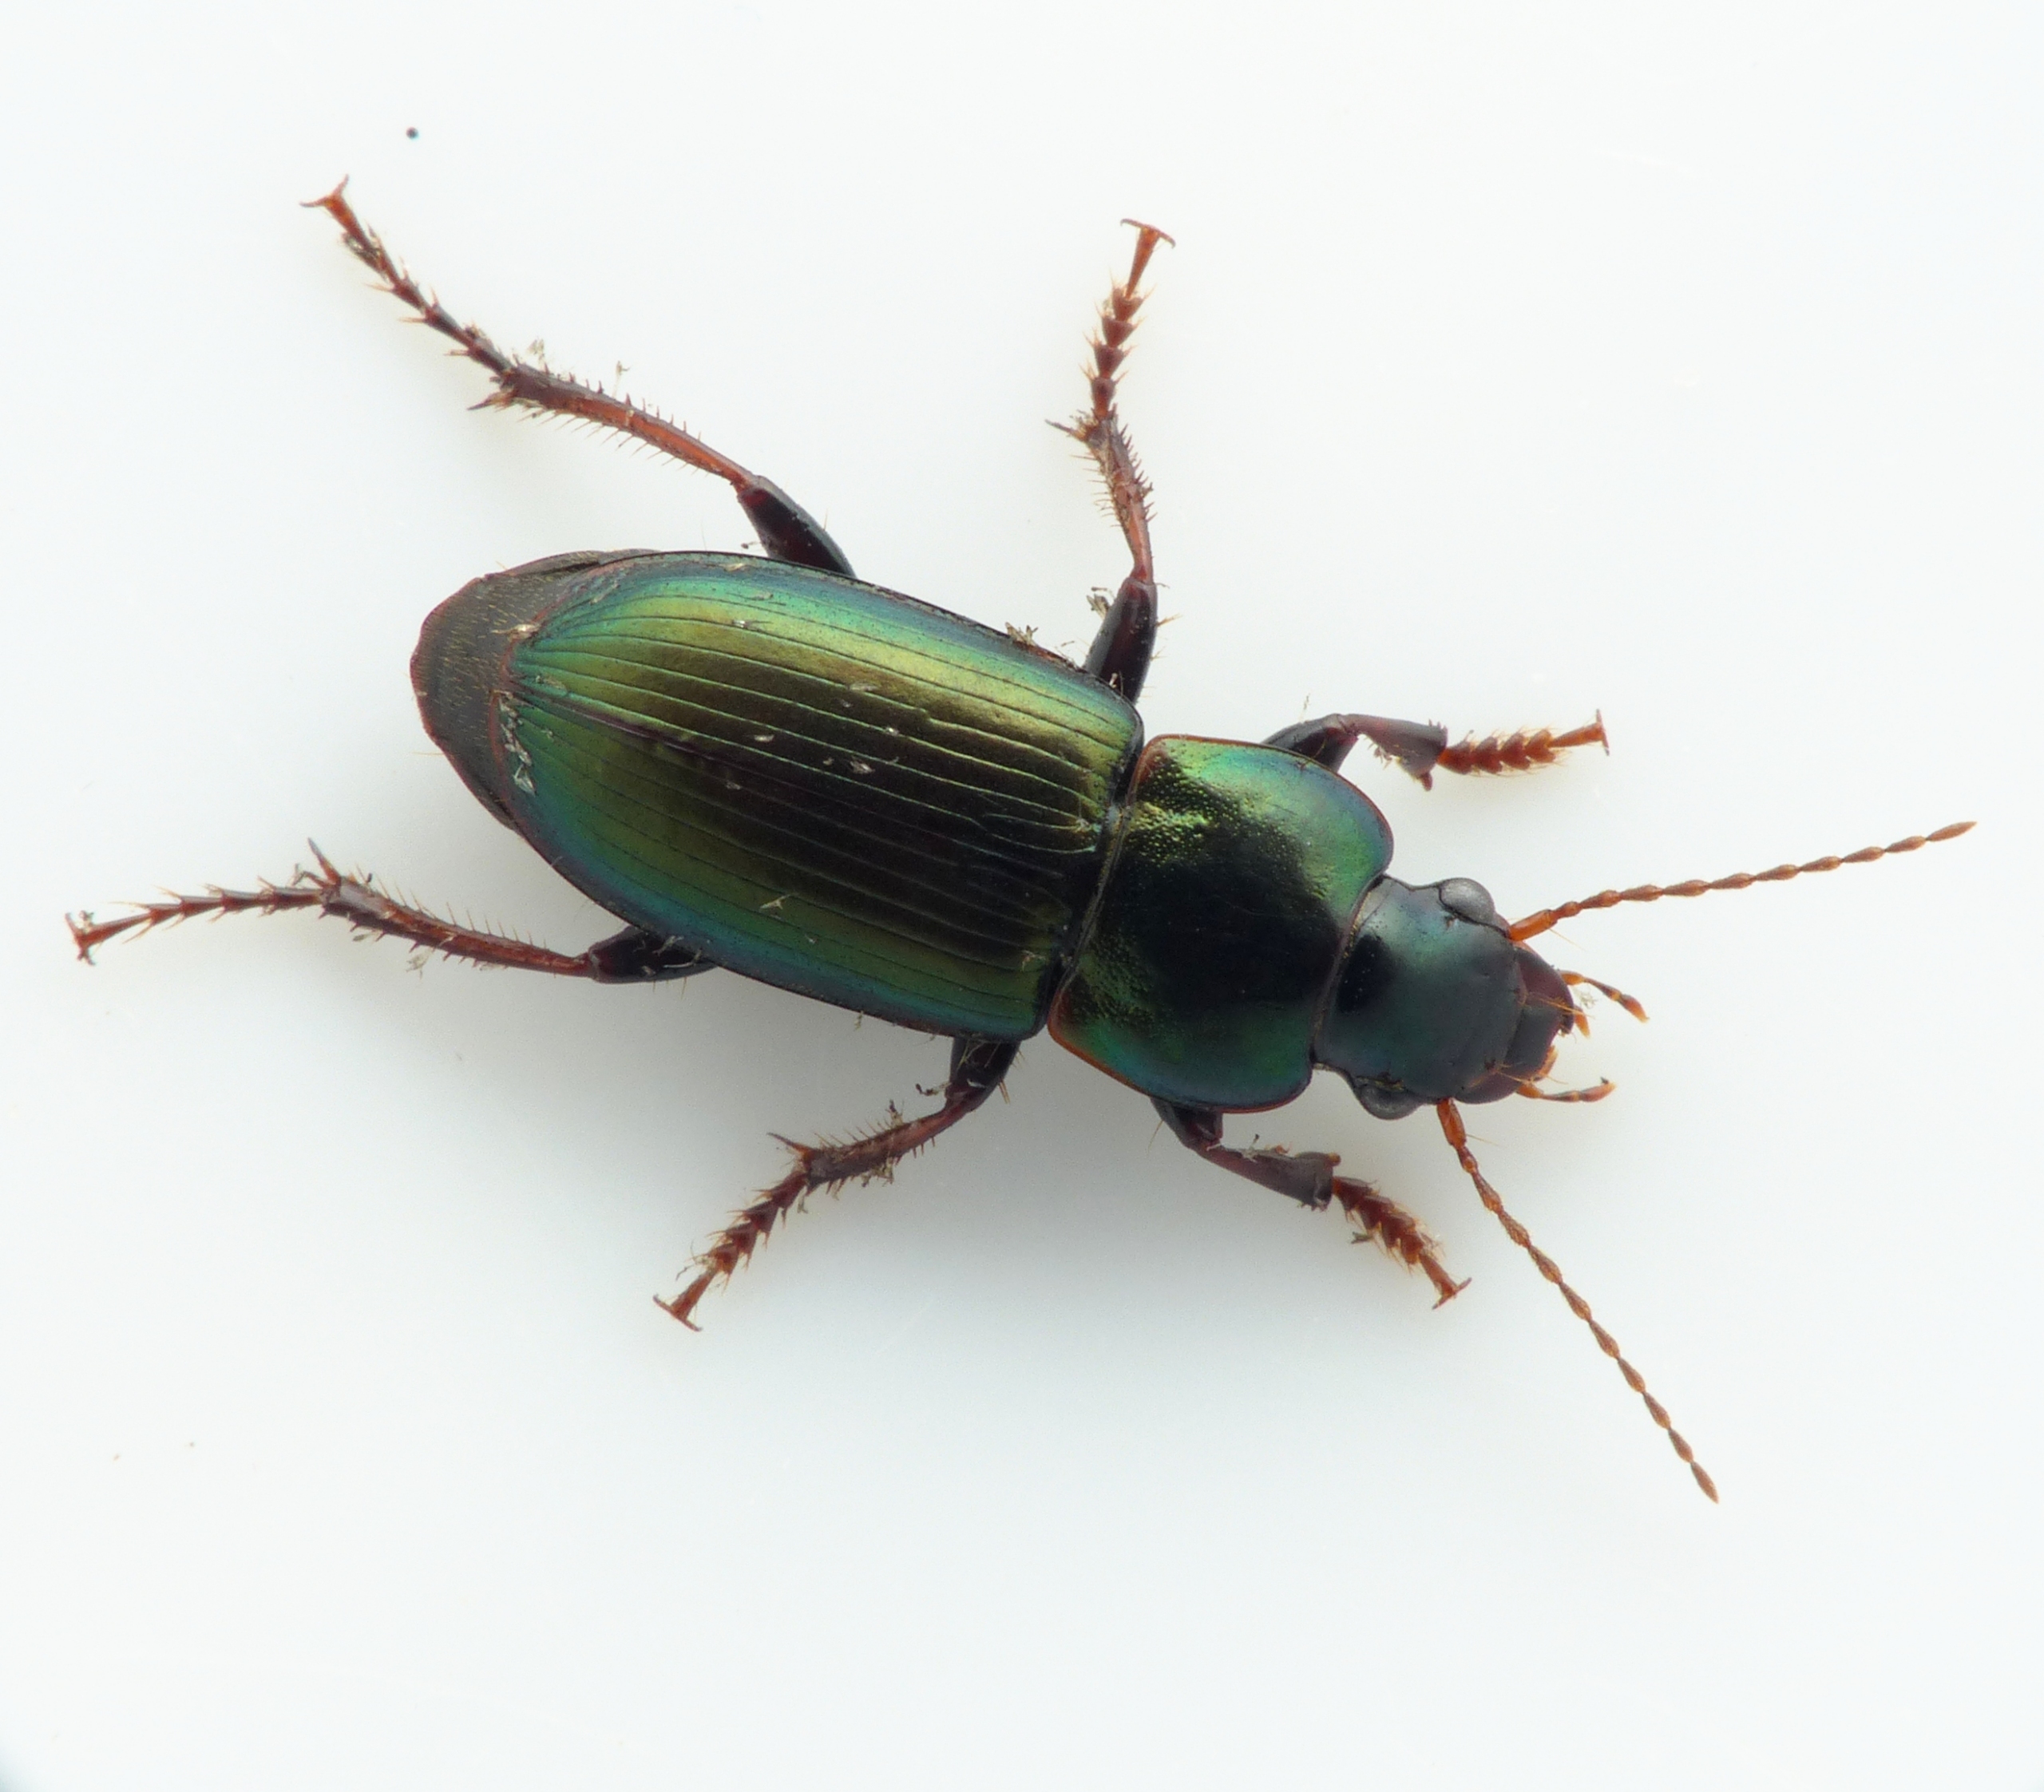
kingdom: Animalia
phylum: Arthropoda
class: Insecta
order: Coleoptera
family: Carabidae
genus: Harpalus
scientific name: Harpalus affinis
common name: Metallisk sandløber
